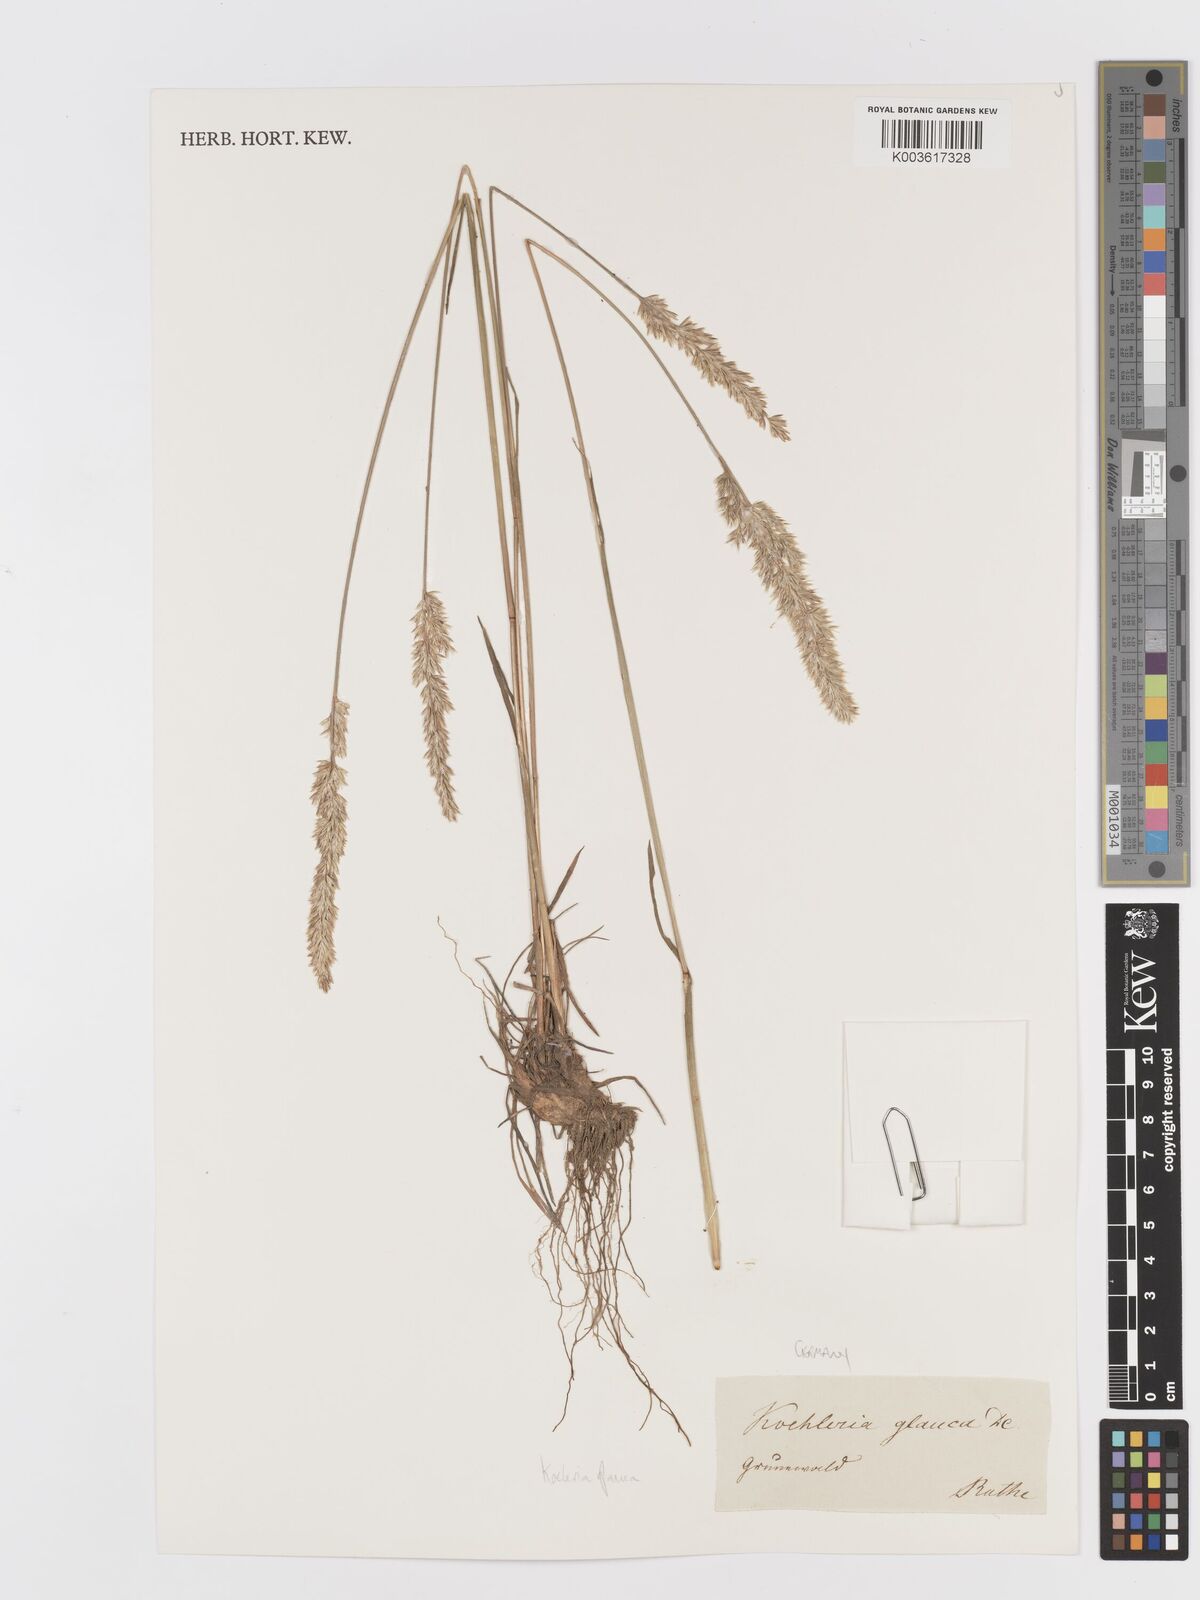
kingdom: Plantae
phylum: Tracheophyta
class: Liliopsida
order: Poales
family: Poaceae
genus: Koeleria
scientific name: Koeleria glauca
